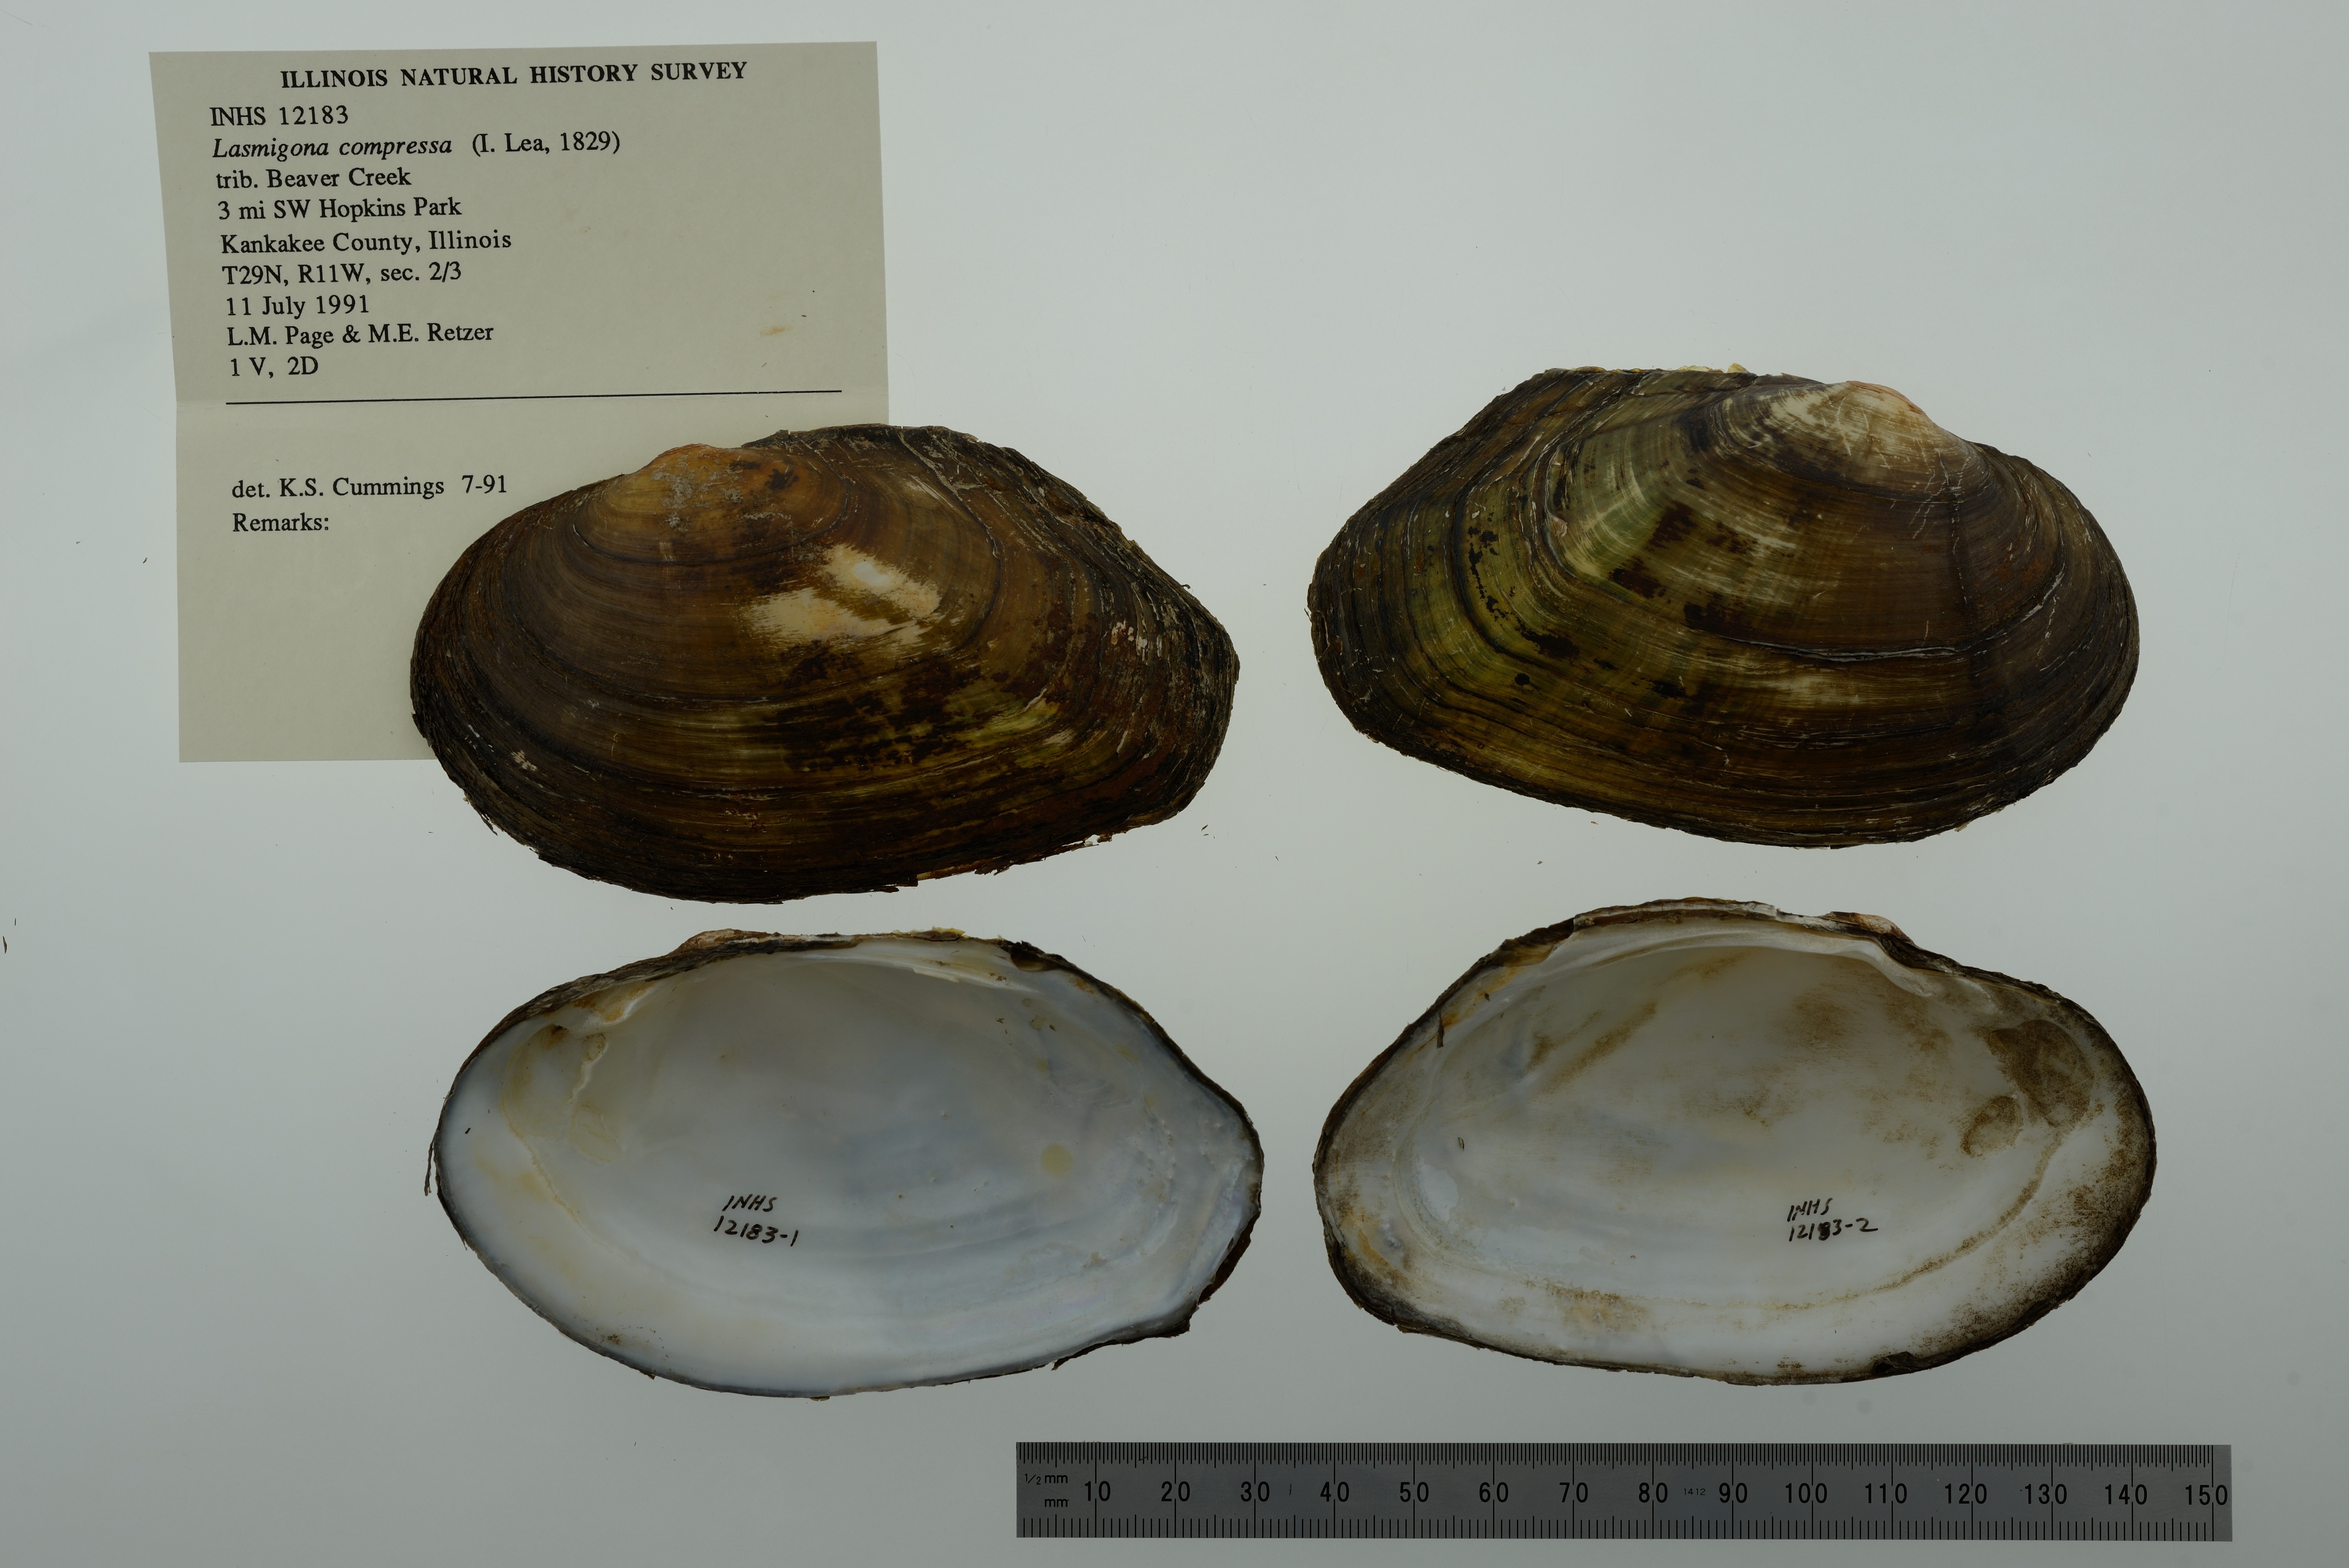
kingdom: Animalia
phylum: Mollusca
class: Bivalvia
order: Unionida
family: Unionidae
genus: Lasmigona
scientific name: Lasmigona compressa
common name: Creek heelsplitter
